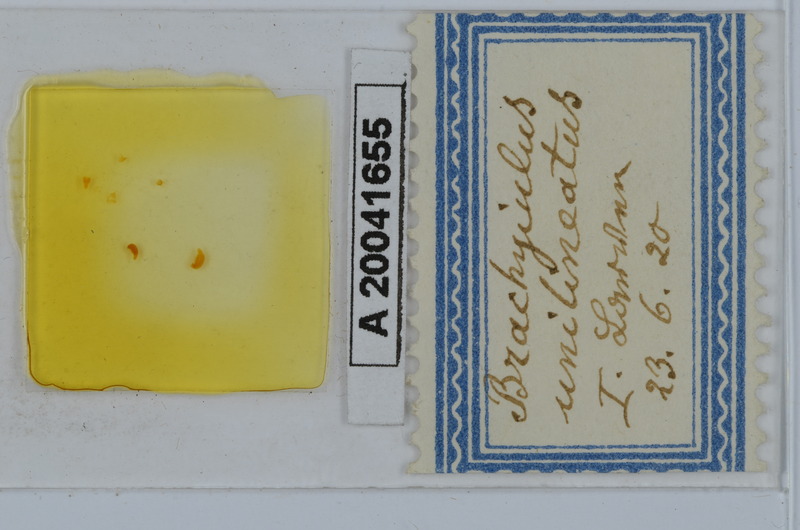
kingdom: Animalia
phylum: Arthropoda
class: Diplopoda
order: Julida
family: Julidae
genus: Brachyiulus
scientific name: Brachyiulus unilineatus
